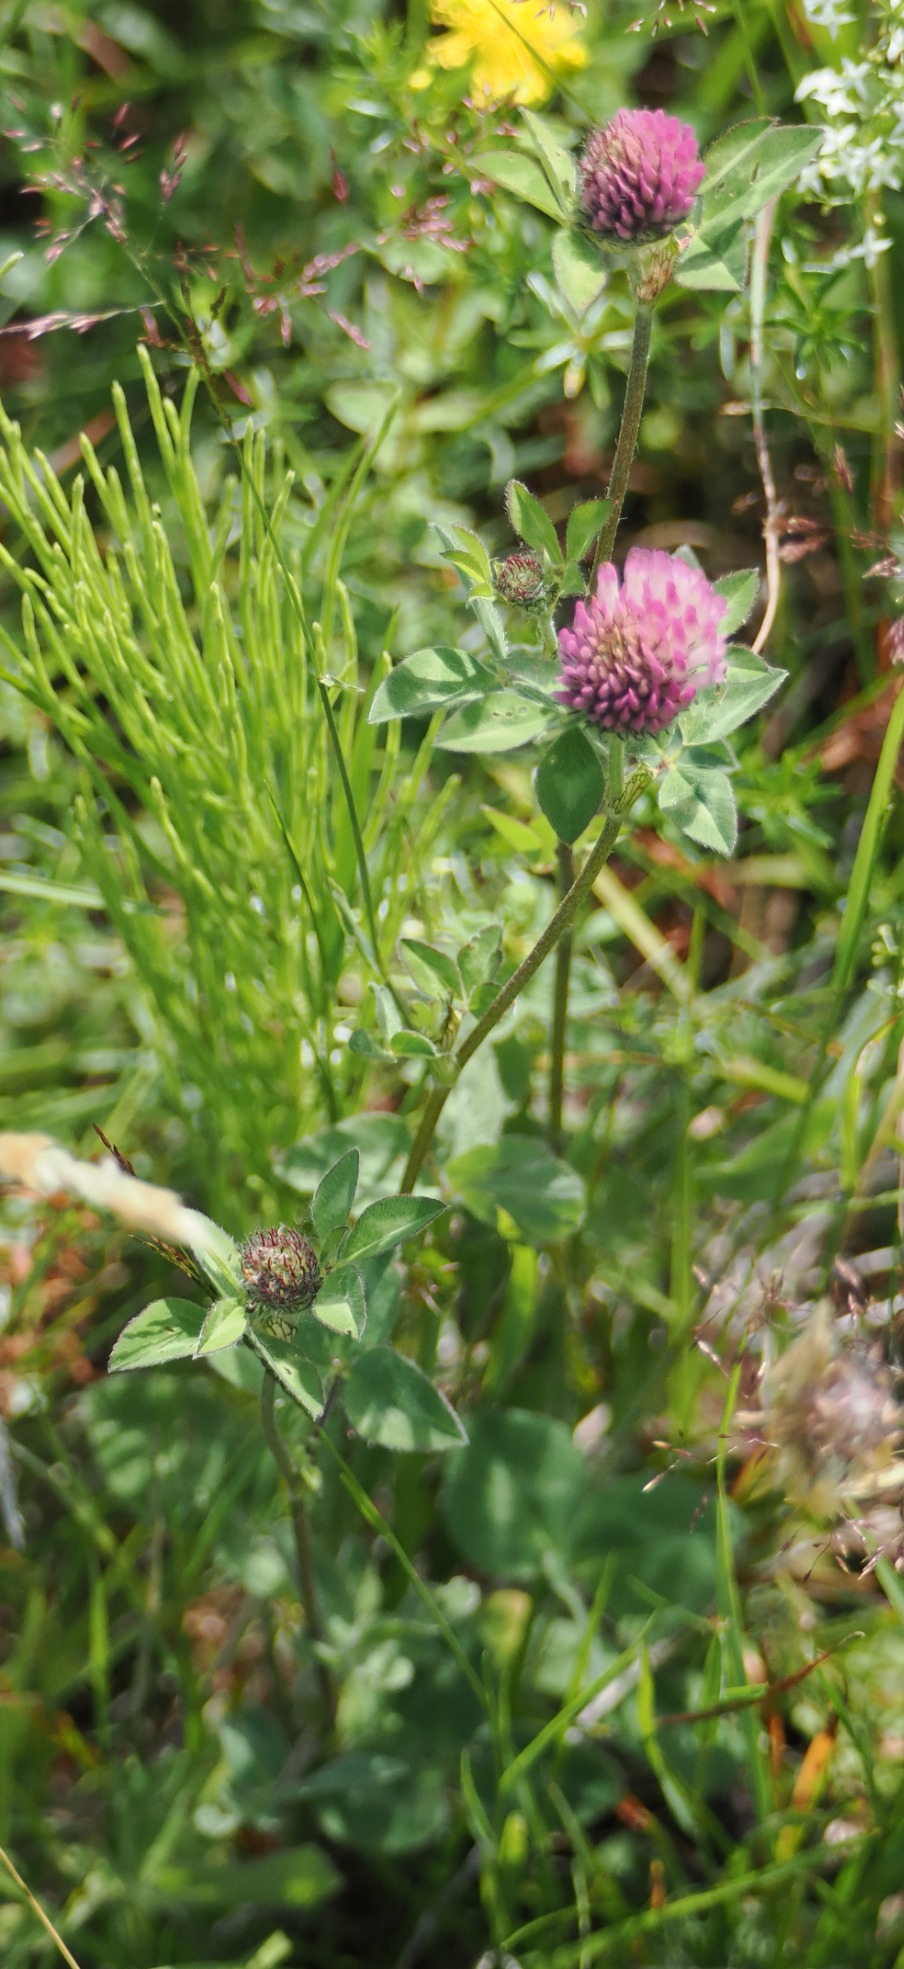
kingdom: Plantae
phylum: Tracheophyta
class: Magnoliopsida
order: Fabales
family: Fabaceae
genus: Trifolium
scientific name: Trifolium pratense
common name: Rød-kløver
